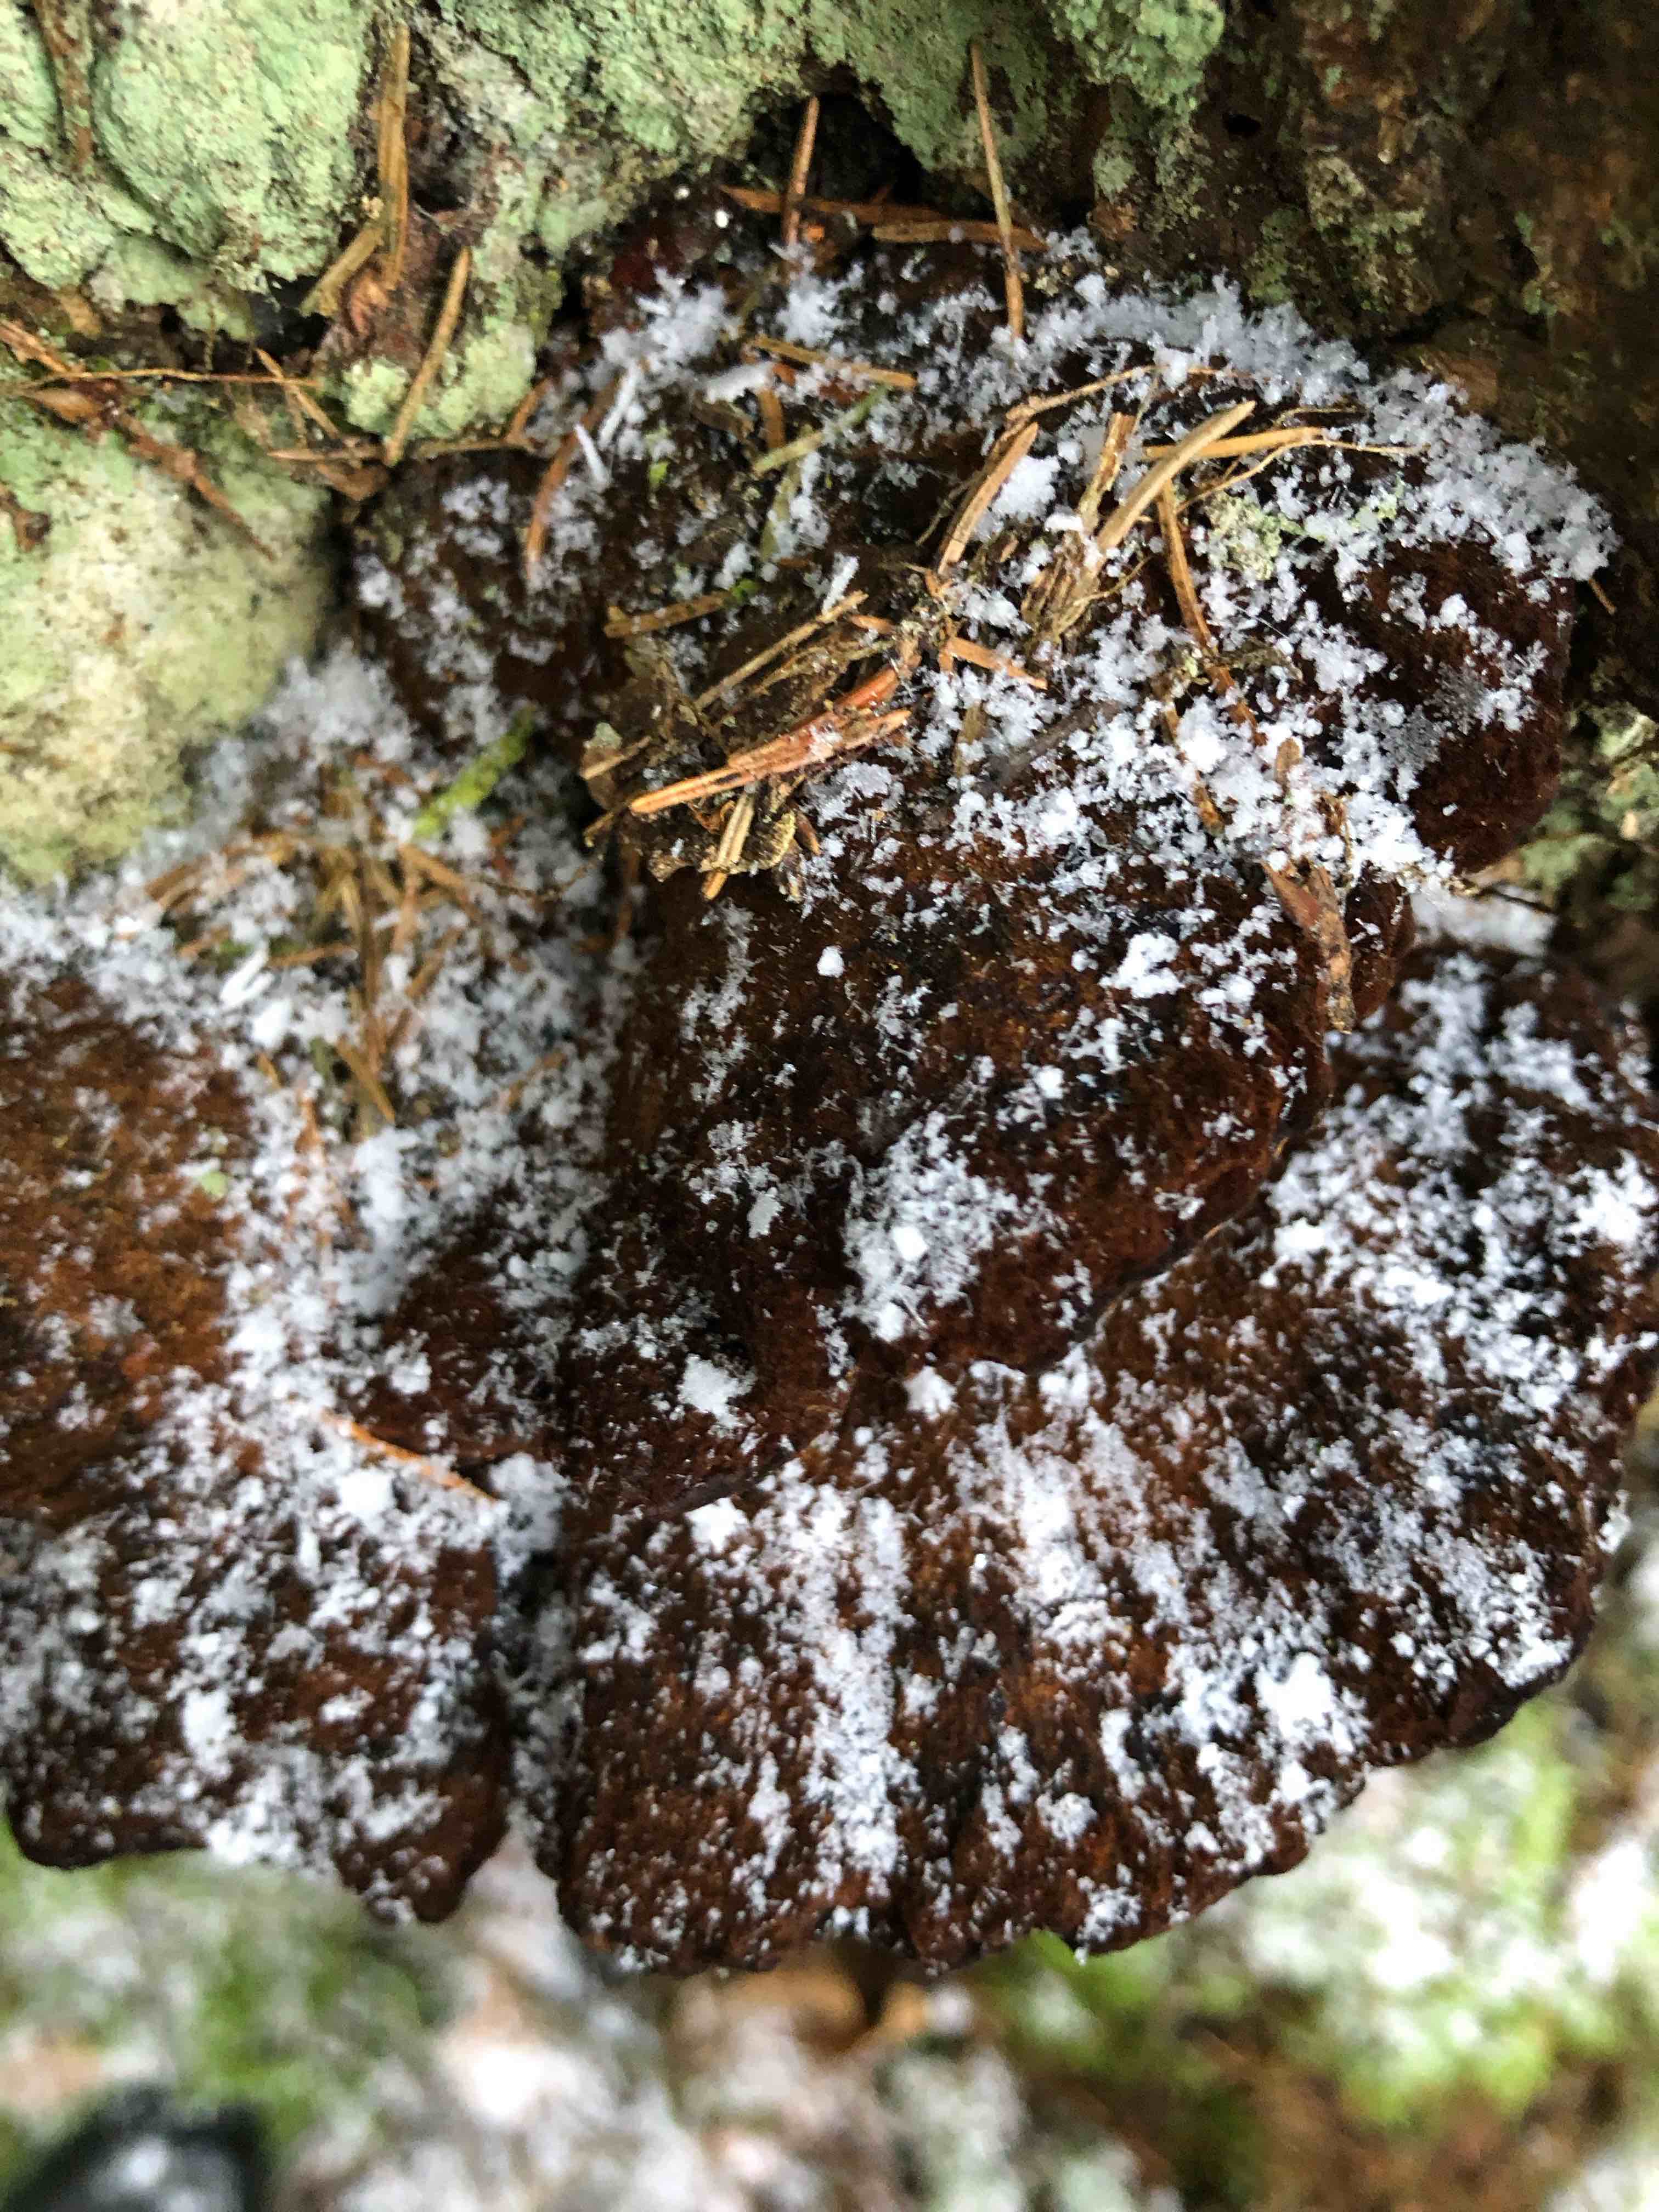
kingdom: Fungi
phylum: Basidiomycota
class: Agaricomycetes
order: Polyporales
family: Ischnodermataceae
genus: Ischnoderma
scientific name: Ischnoderma benzoinum
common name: gran-tjæreporesvamp
